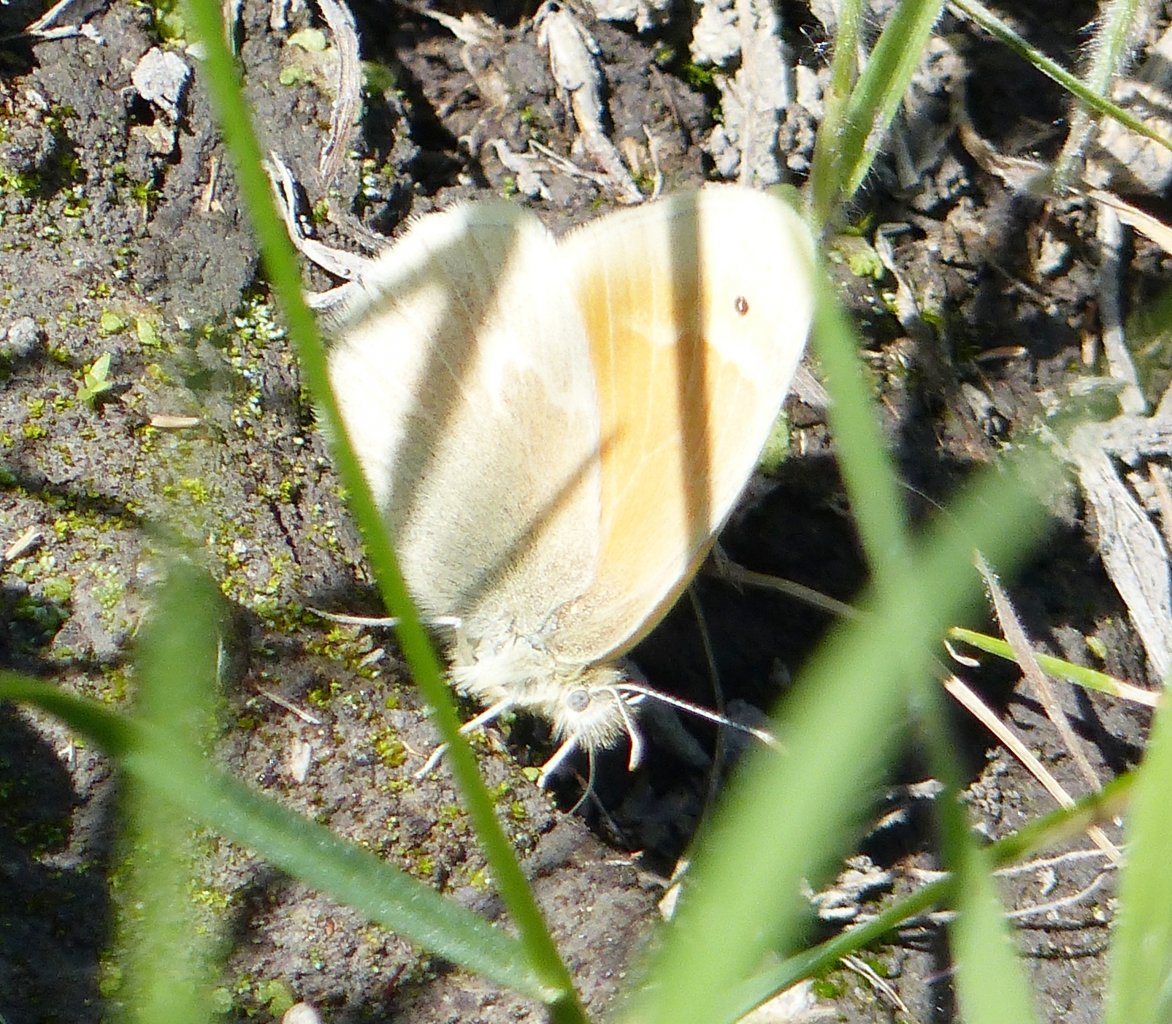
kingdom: Animalia
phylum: Arthropoda
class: Insecta
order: Lepidoptera
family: Nymphalidae
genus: Coenonympha
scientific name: Coenonympha tullia
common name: Large Heath
